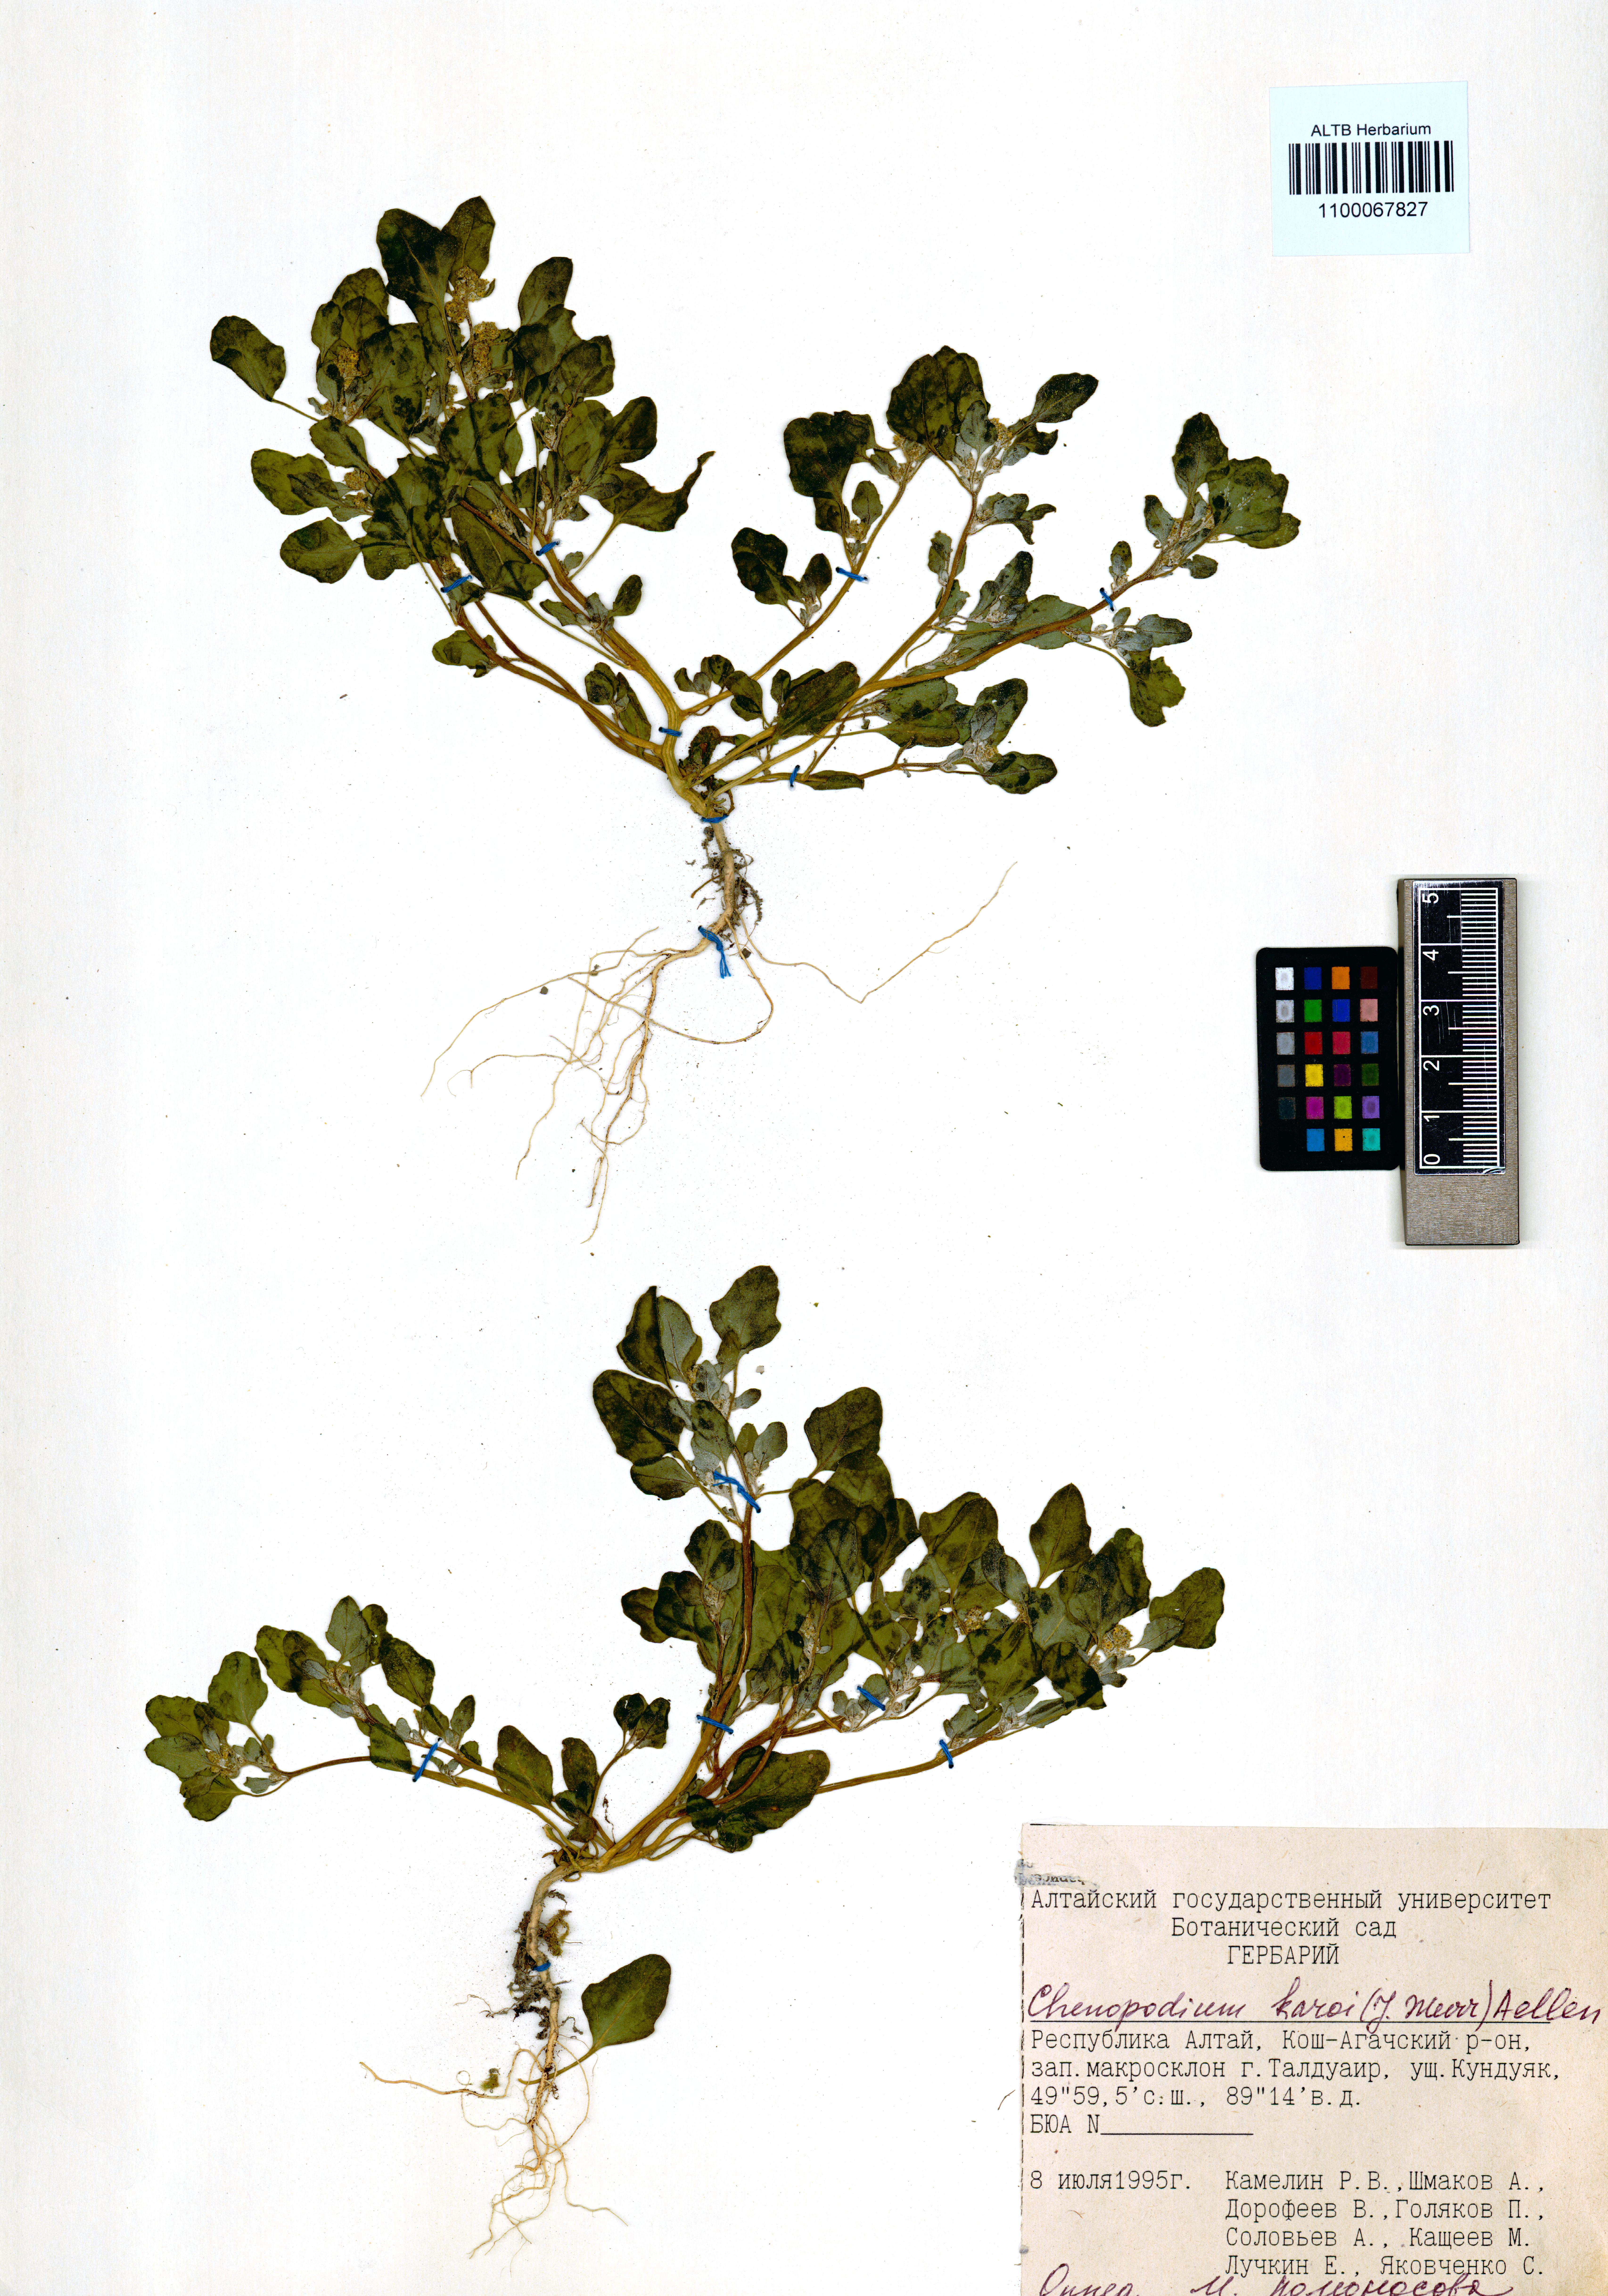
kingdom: Plantae
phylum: Tracheophyta
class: Magnoliopsida
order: Caryophyllales
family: Amaranthaceae
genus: Chenopodium
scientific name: Chenopodium karoi
